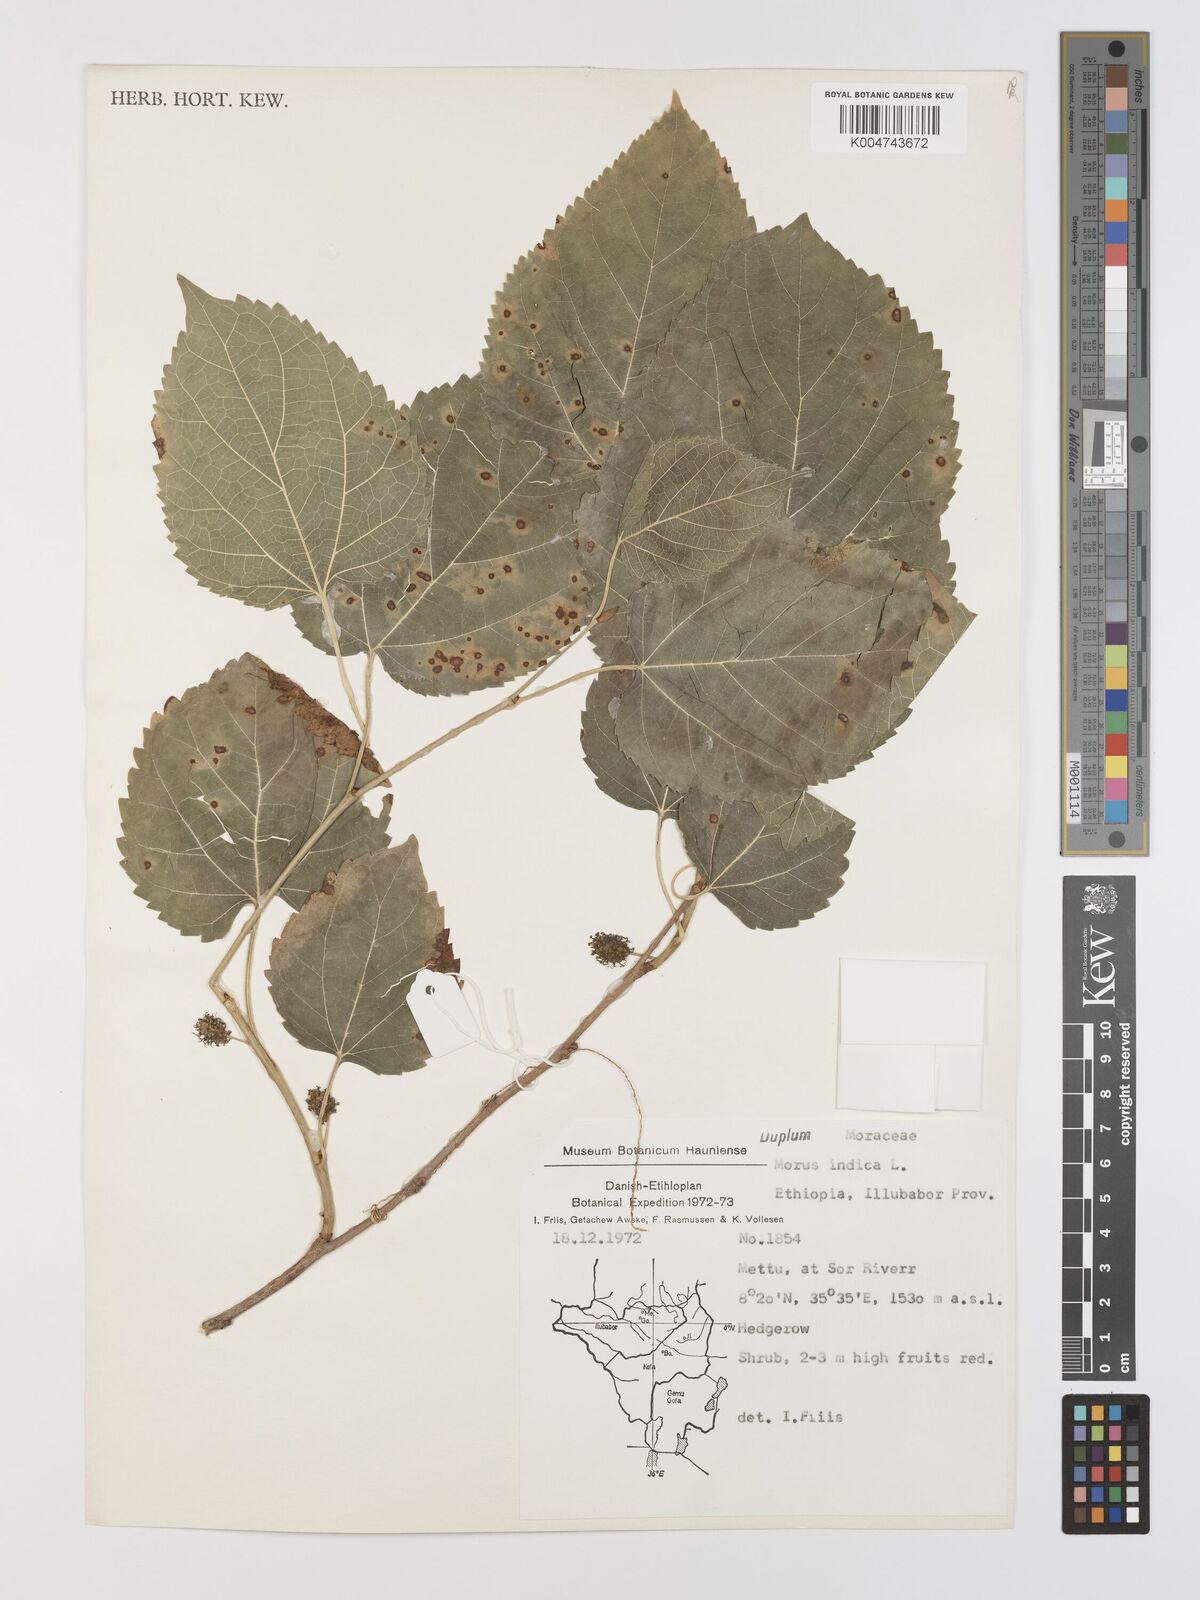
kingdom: Plantae
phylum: Tracheophyta
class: Magnoliopsida
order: Rosales
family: Moraceae
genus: Morus
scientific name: Morus indica
